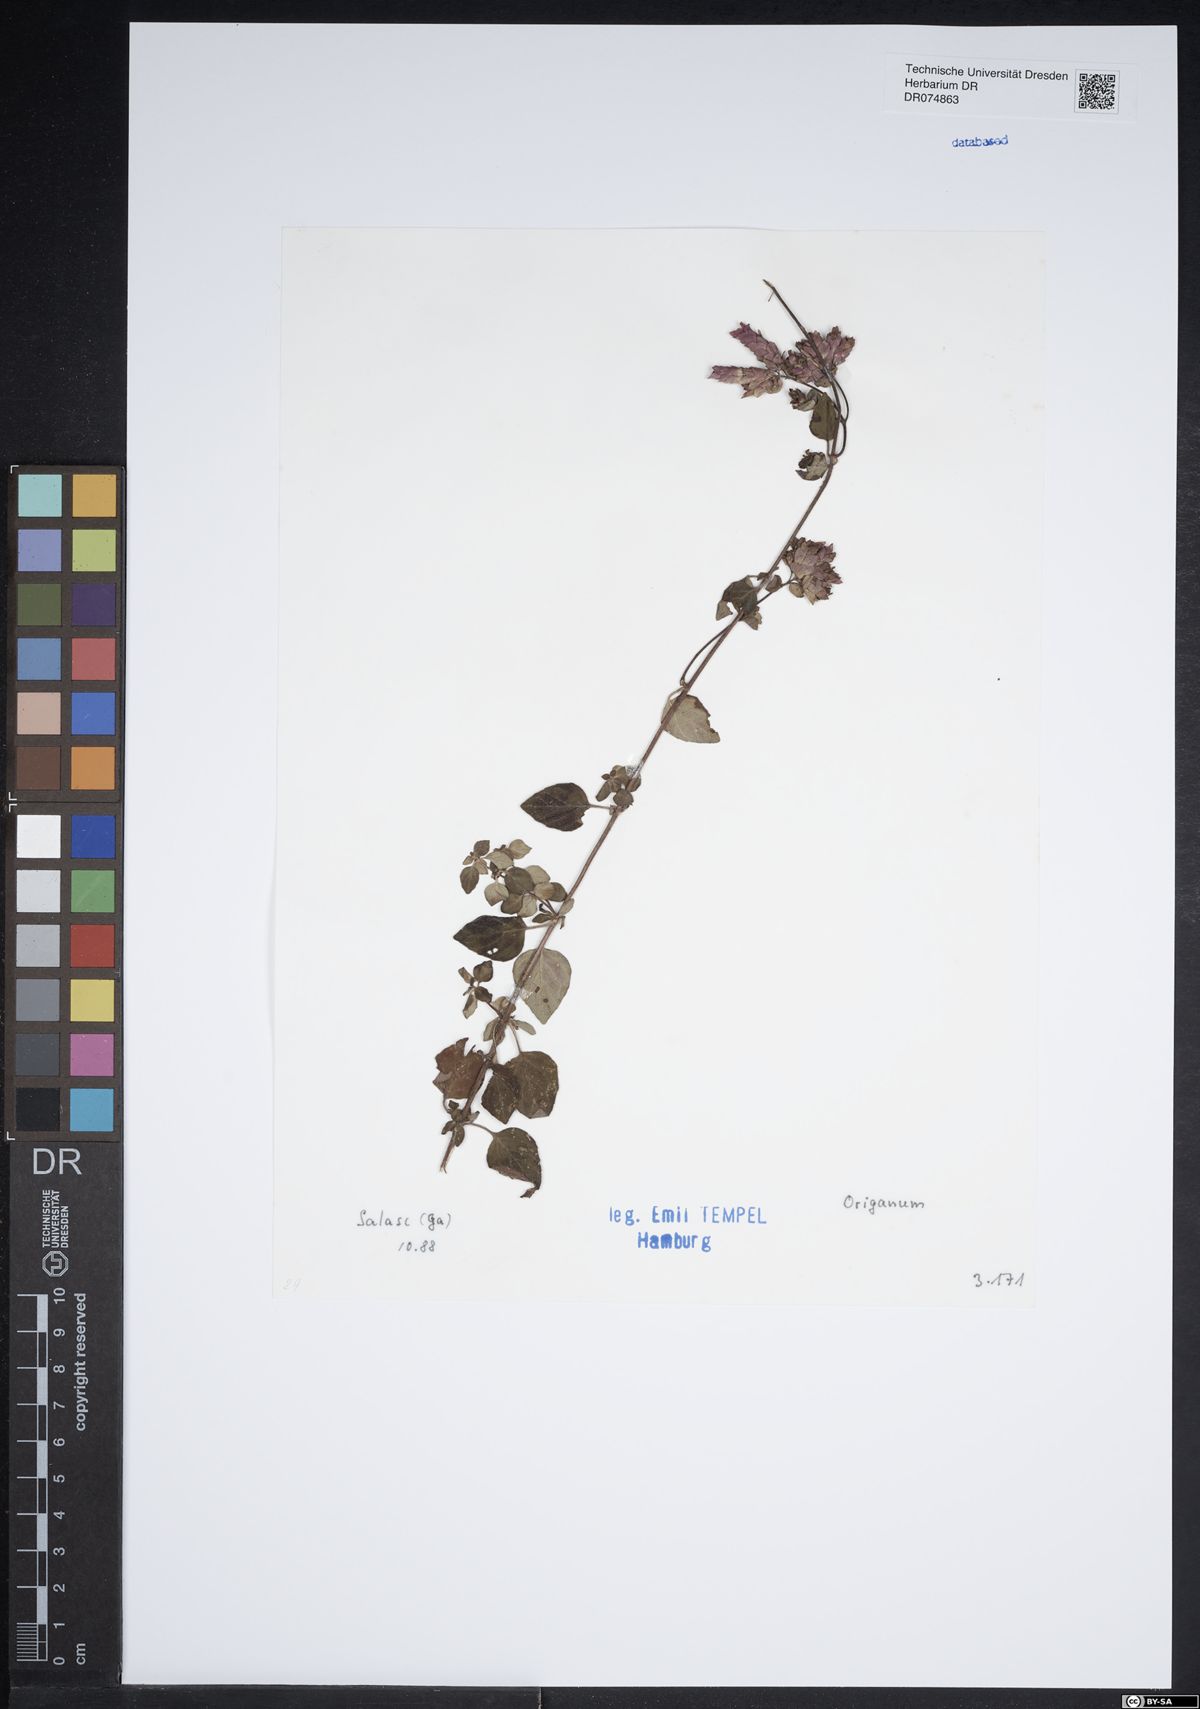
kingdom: Plantae
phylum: Tracheophyta
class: Magnoliopsida
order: Lamiales
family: Lamiaceae
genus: Origanum
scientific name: Origanum
